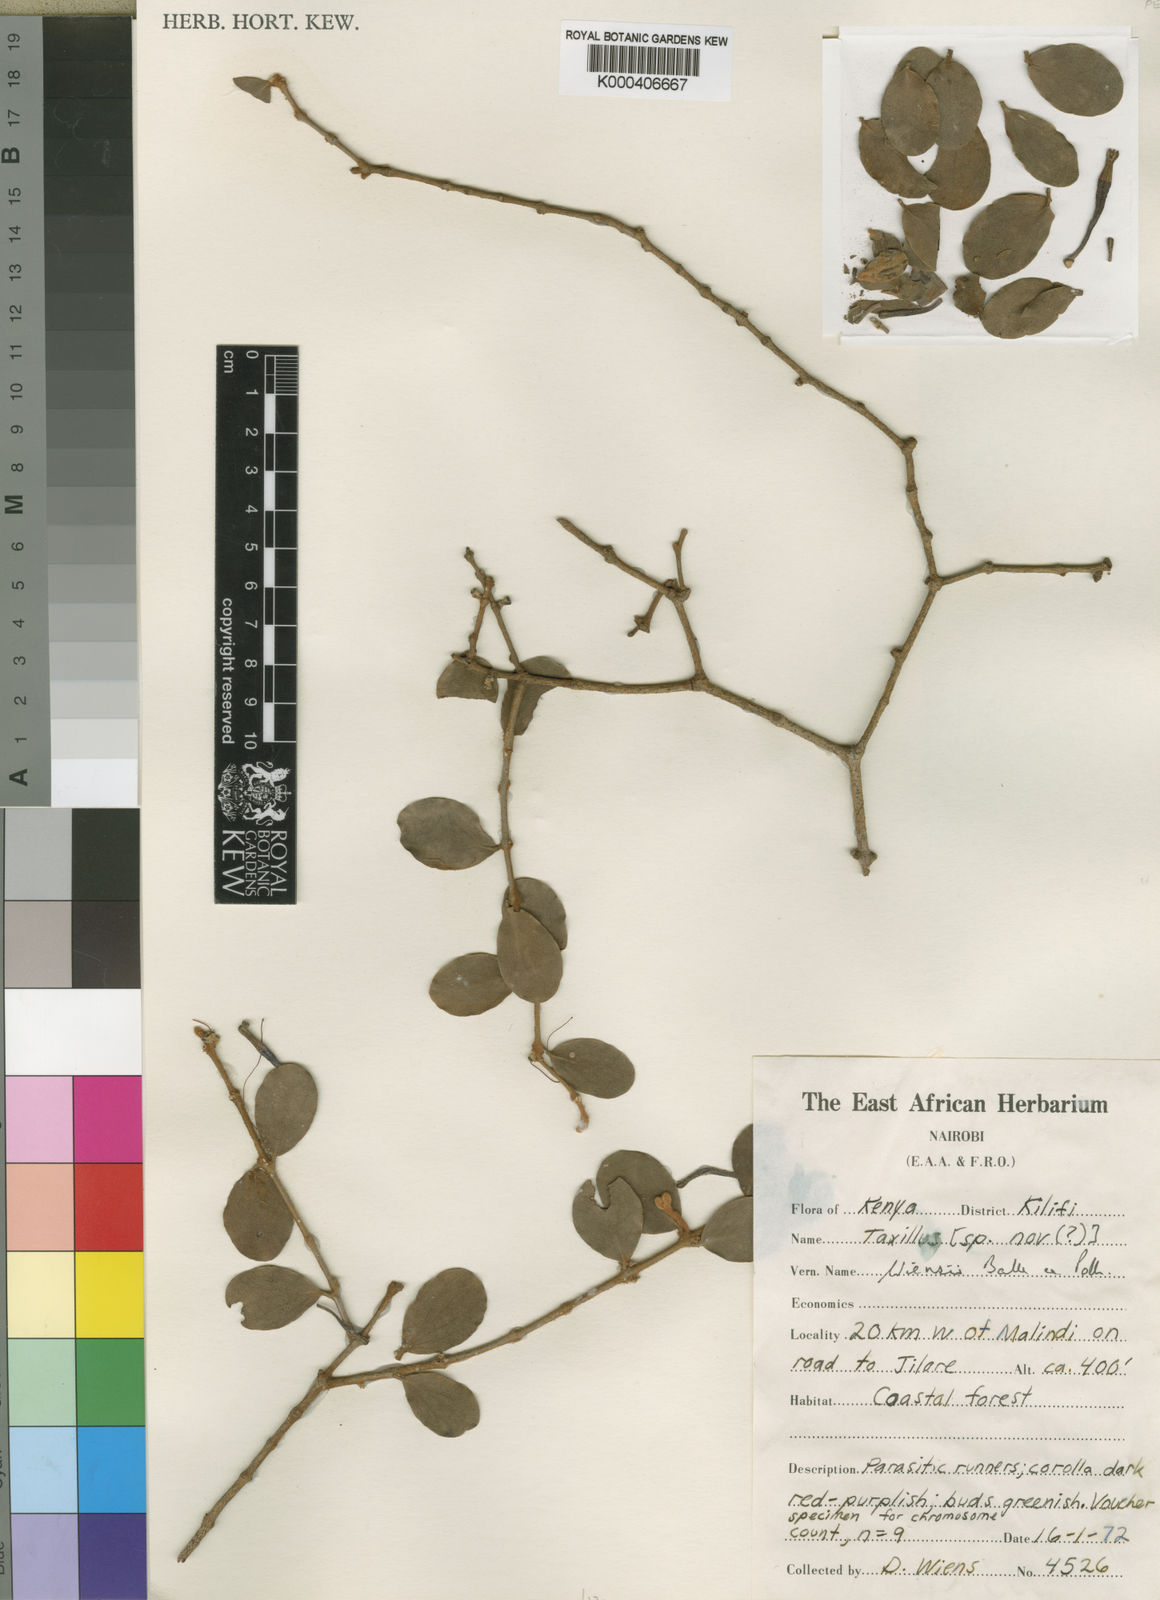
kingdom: Plantae
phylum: Tracheophyta
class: Magnoliopsida
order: Santalales
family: Loranthaceae
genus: Taxillus
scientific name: Taxillus wiensii
